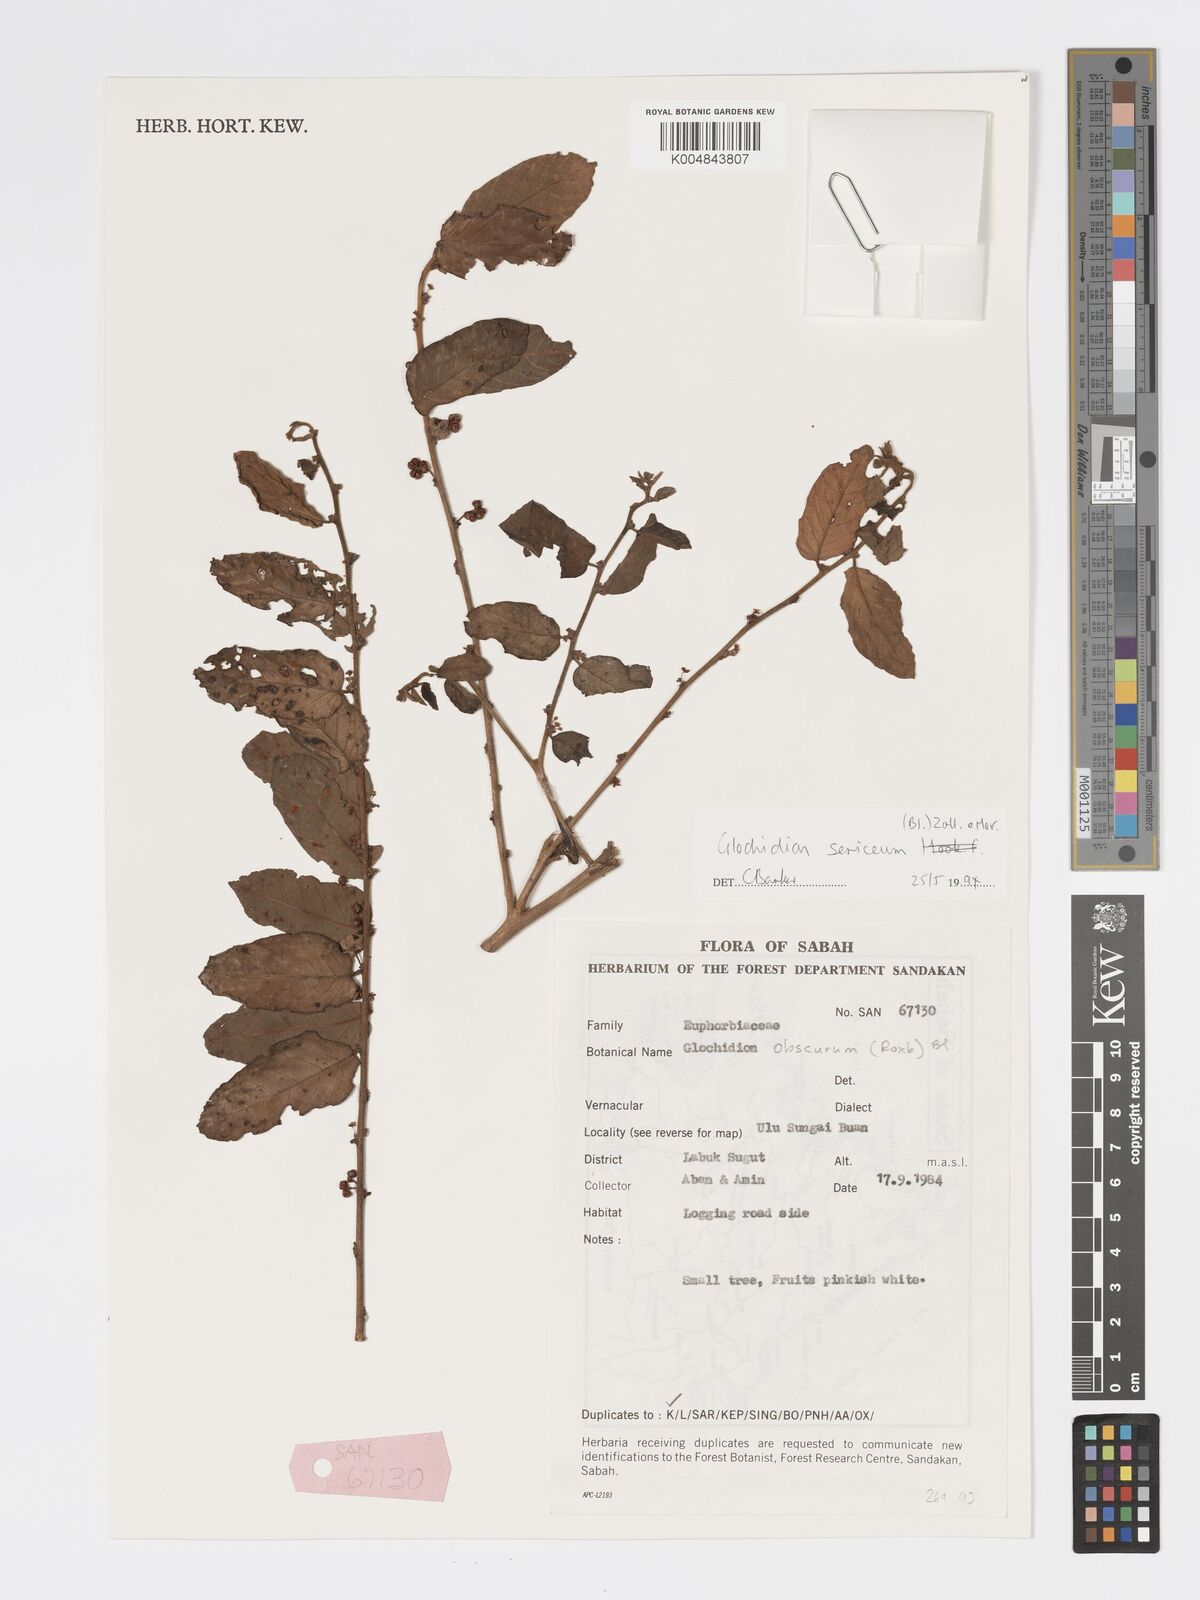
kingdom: Plantae
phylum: Tracheophyta
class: Magnoliopsida
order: Malpighiales
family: Phyllanthaceae
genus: Glochidion
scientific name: Glochidion sericeum
